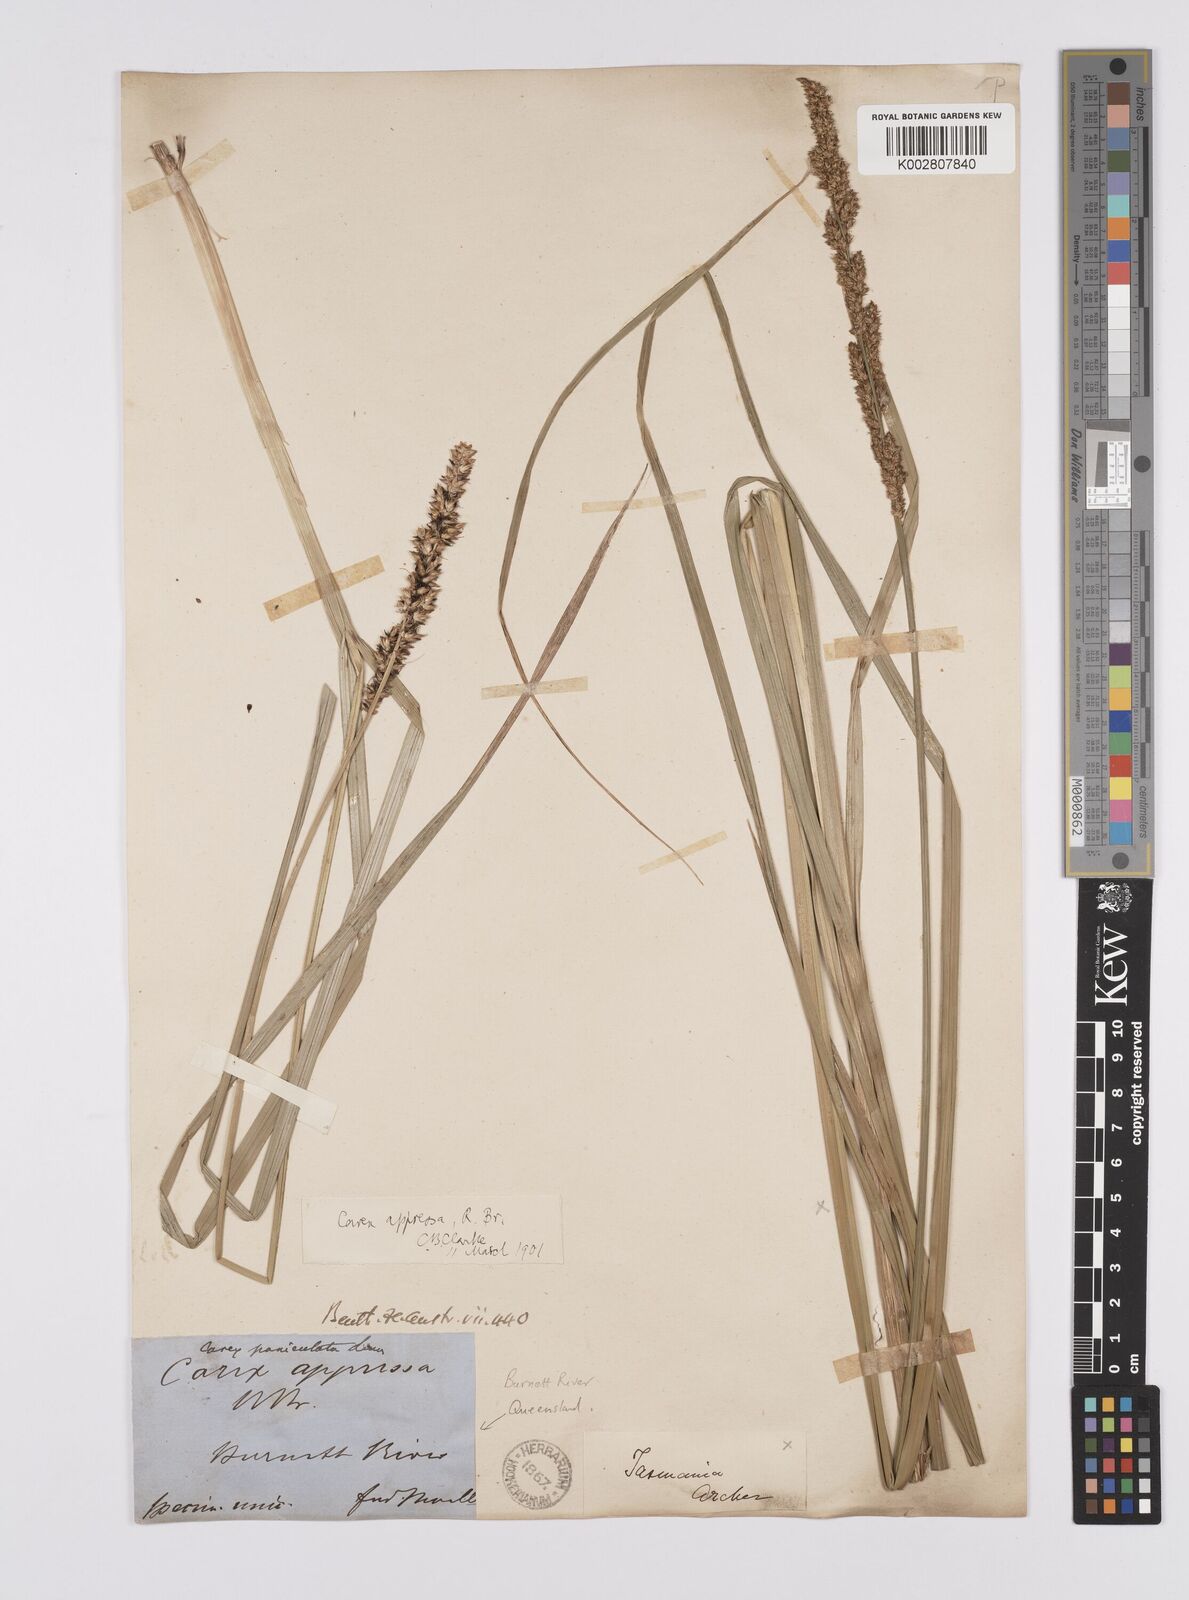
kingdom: Plantae
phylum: Tracheophyta
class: Liliopsida
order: Poales
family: Cyperaceae
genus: Carex
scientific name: Carex appressa
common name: Tussock sedge
